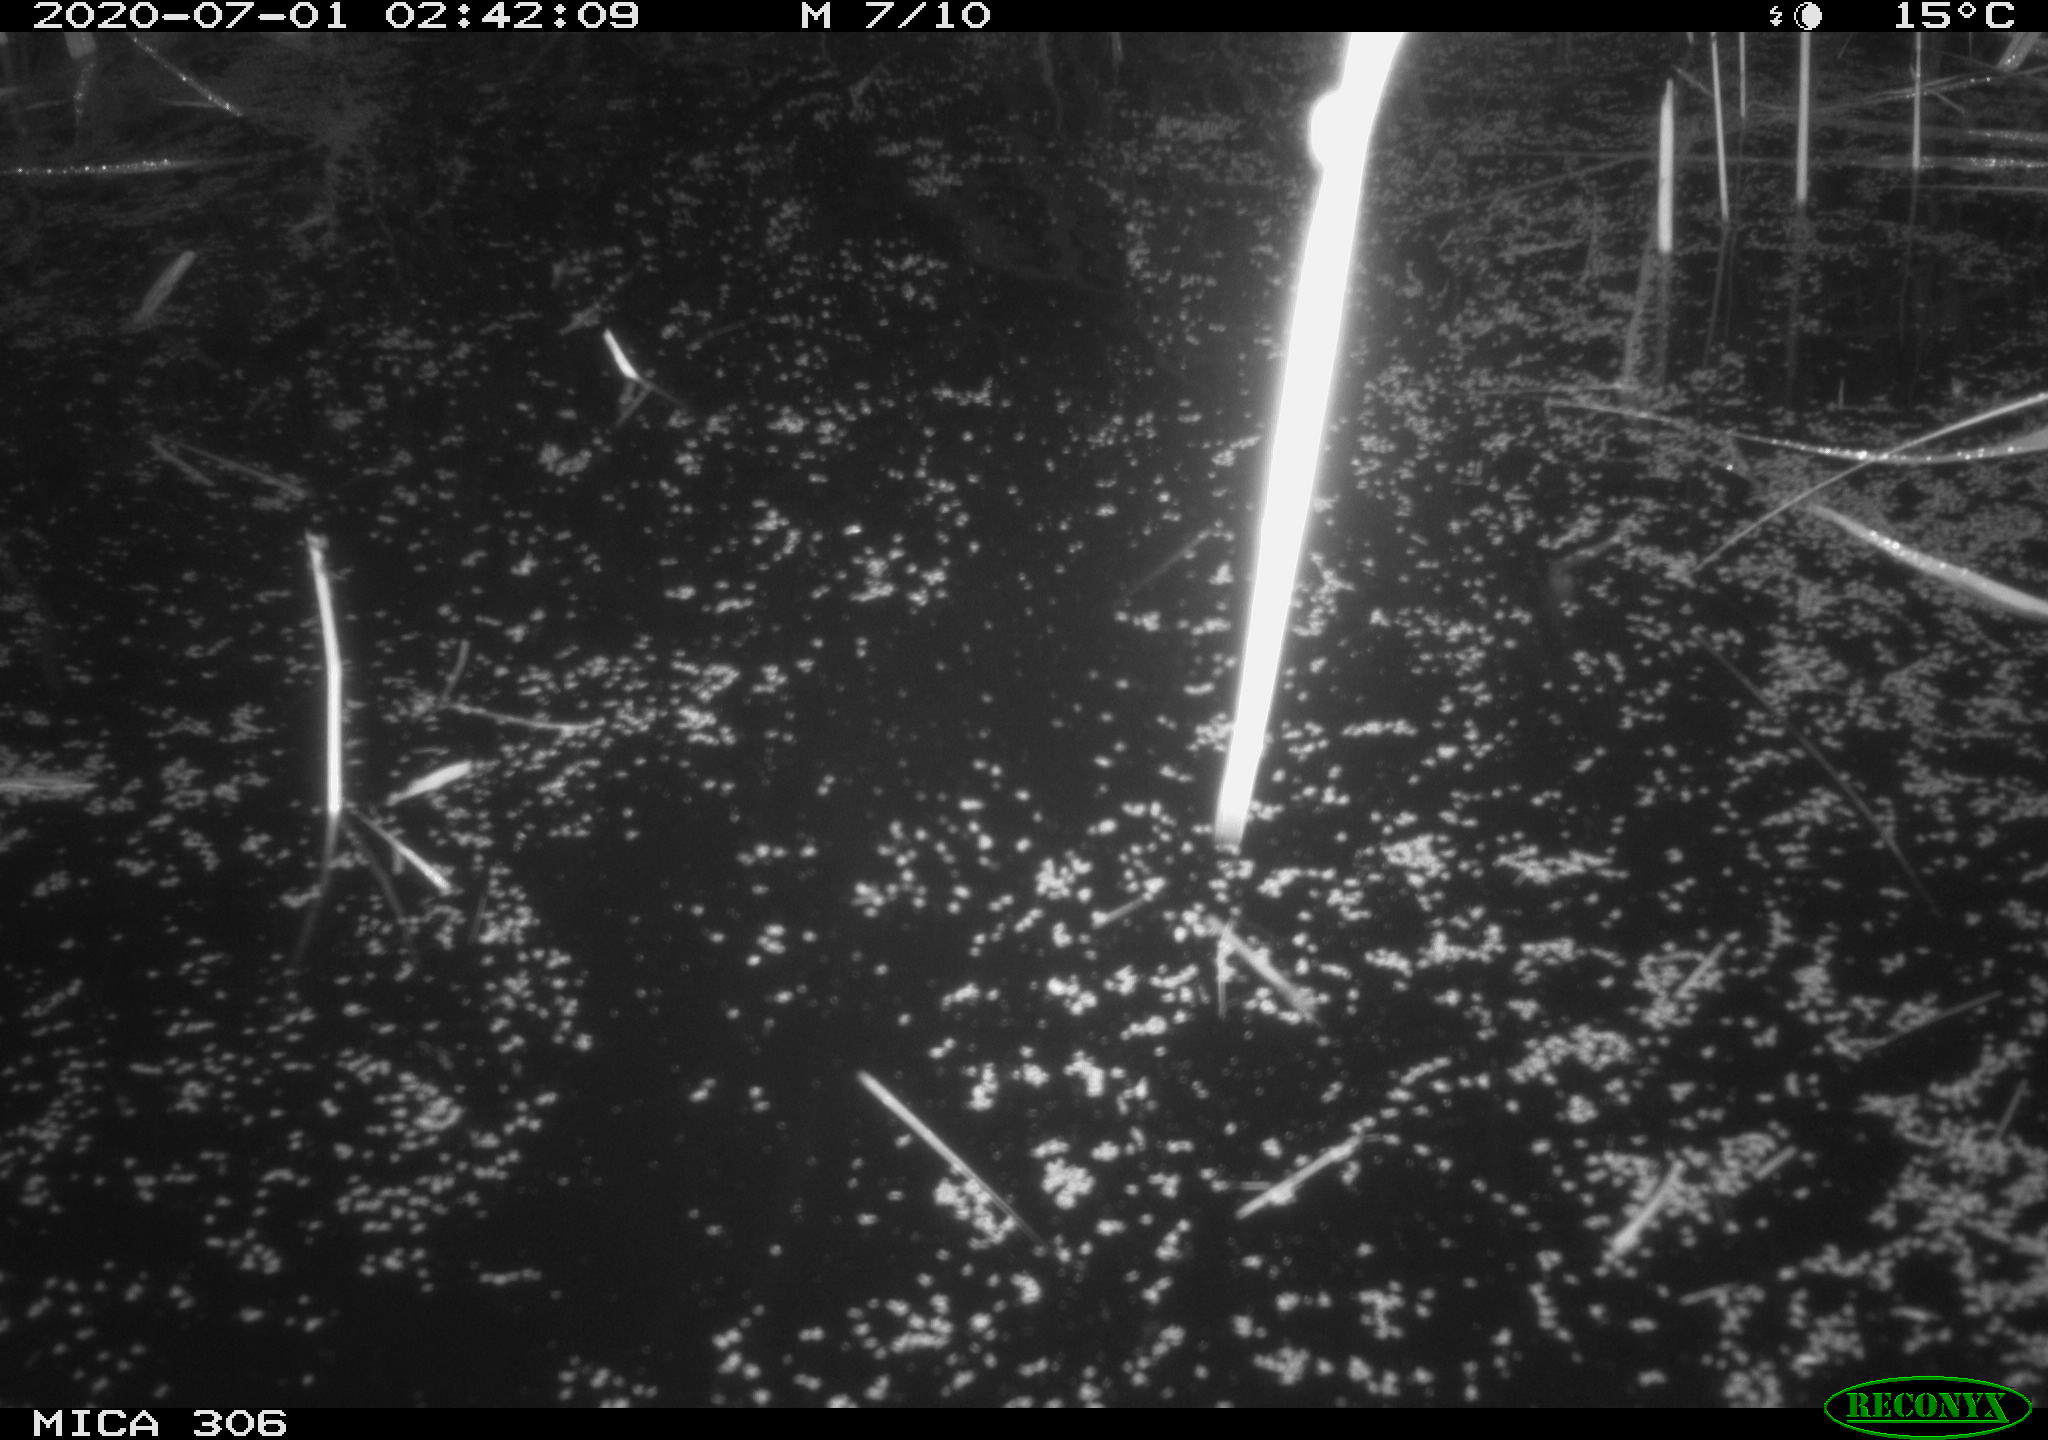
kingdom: Animalia
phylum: Chordata
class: Mammalia
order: Rodentia
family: Cricetidae
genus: Ondatra
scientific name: Ondatra zibethicus
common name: Muskrat
